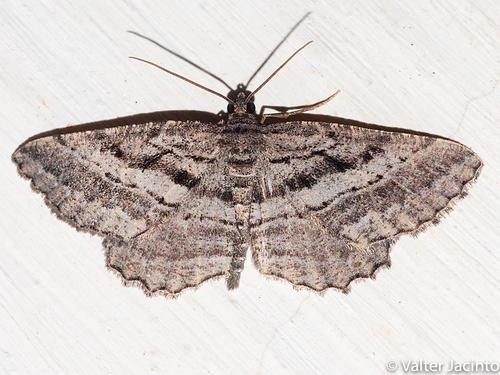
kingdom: Animalia
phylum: Arthropoda
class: Insecta
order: Lepidoptera
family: Geometridae
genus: Rhoptria
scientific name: Rhoptria asperaria
